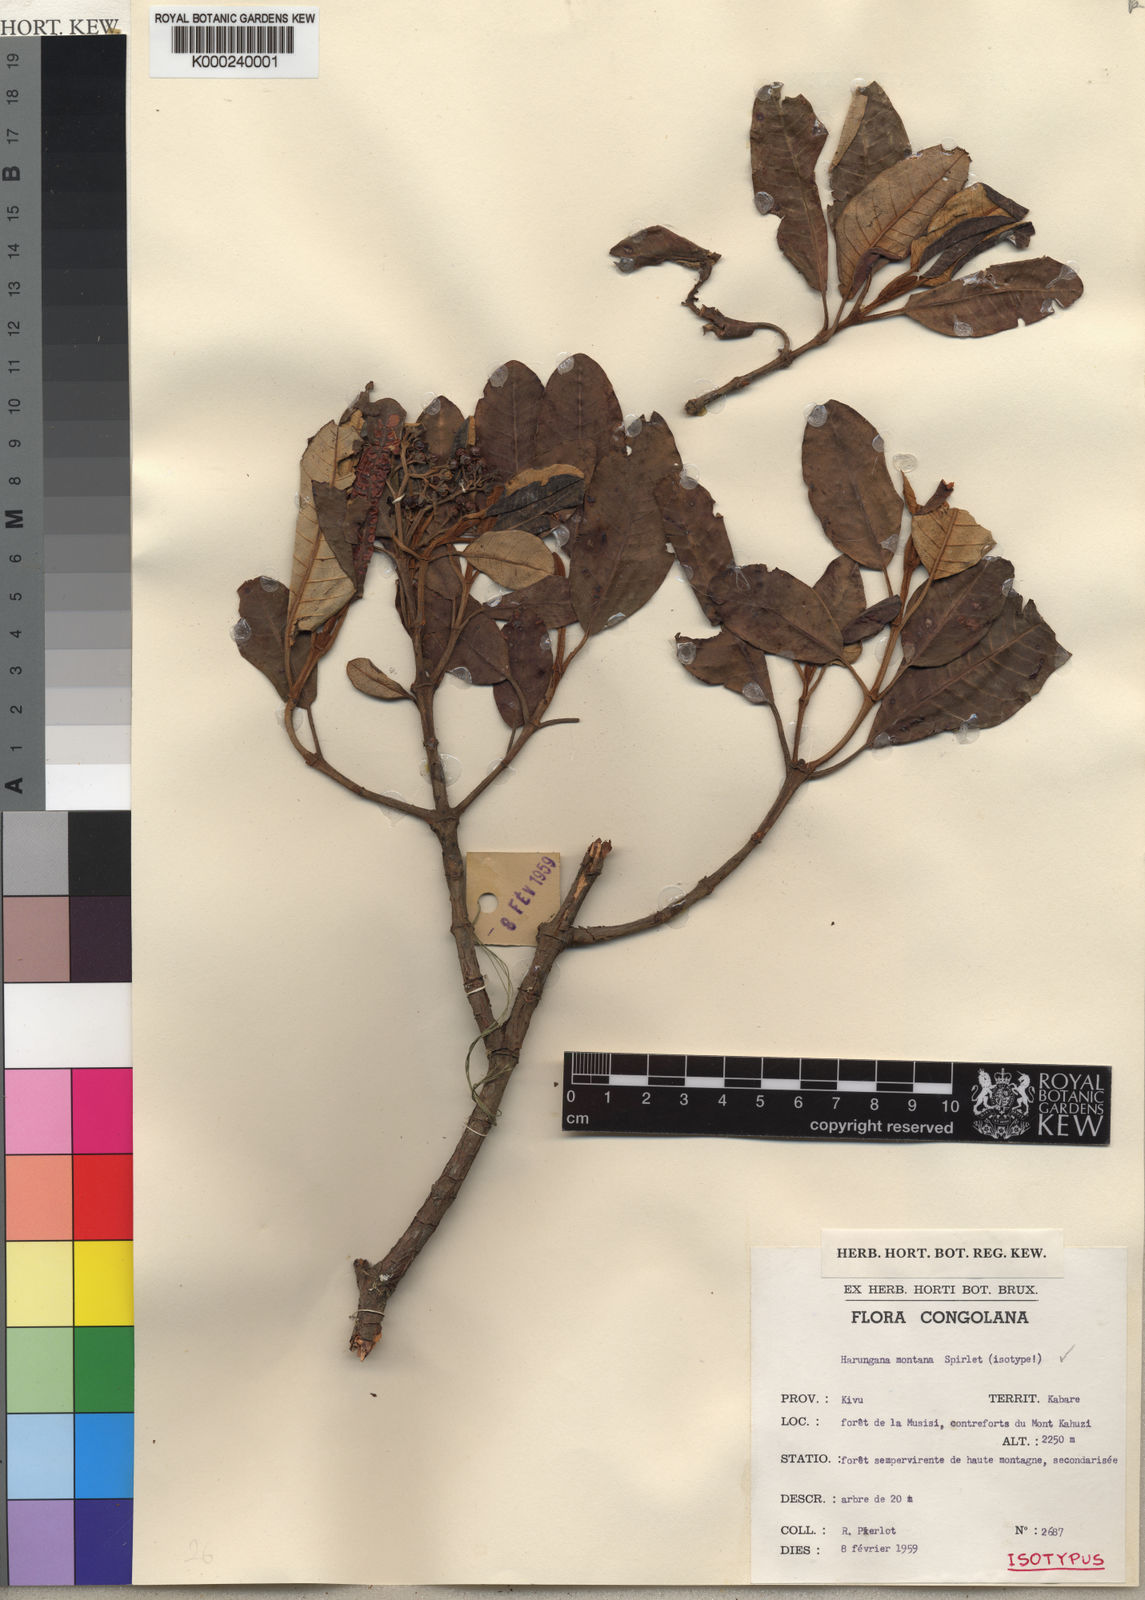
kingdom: Plantae
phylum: Tracheophyta
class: Magnoliopsida
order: Malpighiales
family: Hypericaceae
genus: Harungana
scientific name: Harungana montana
